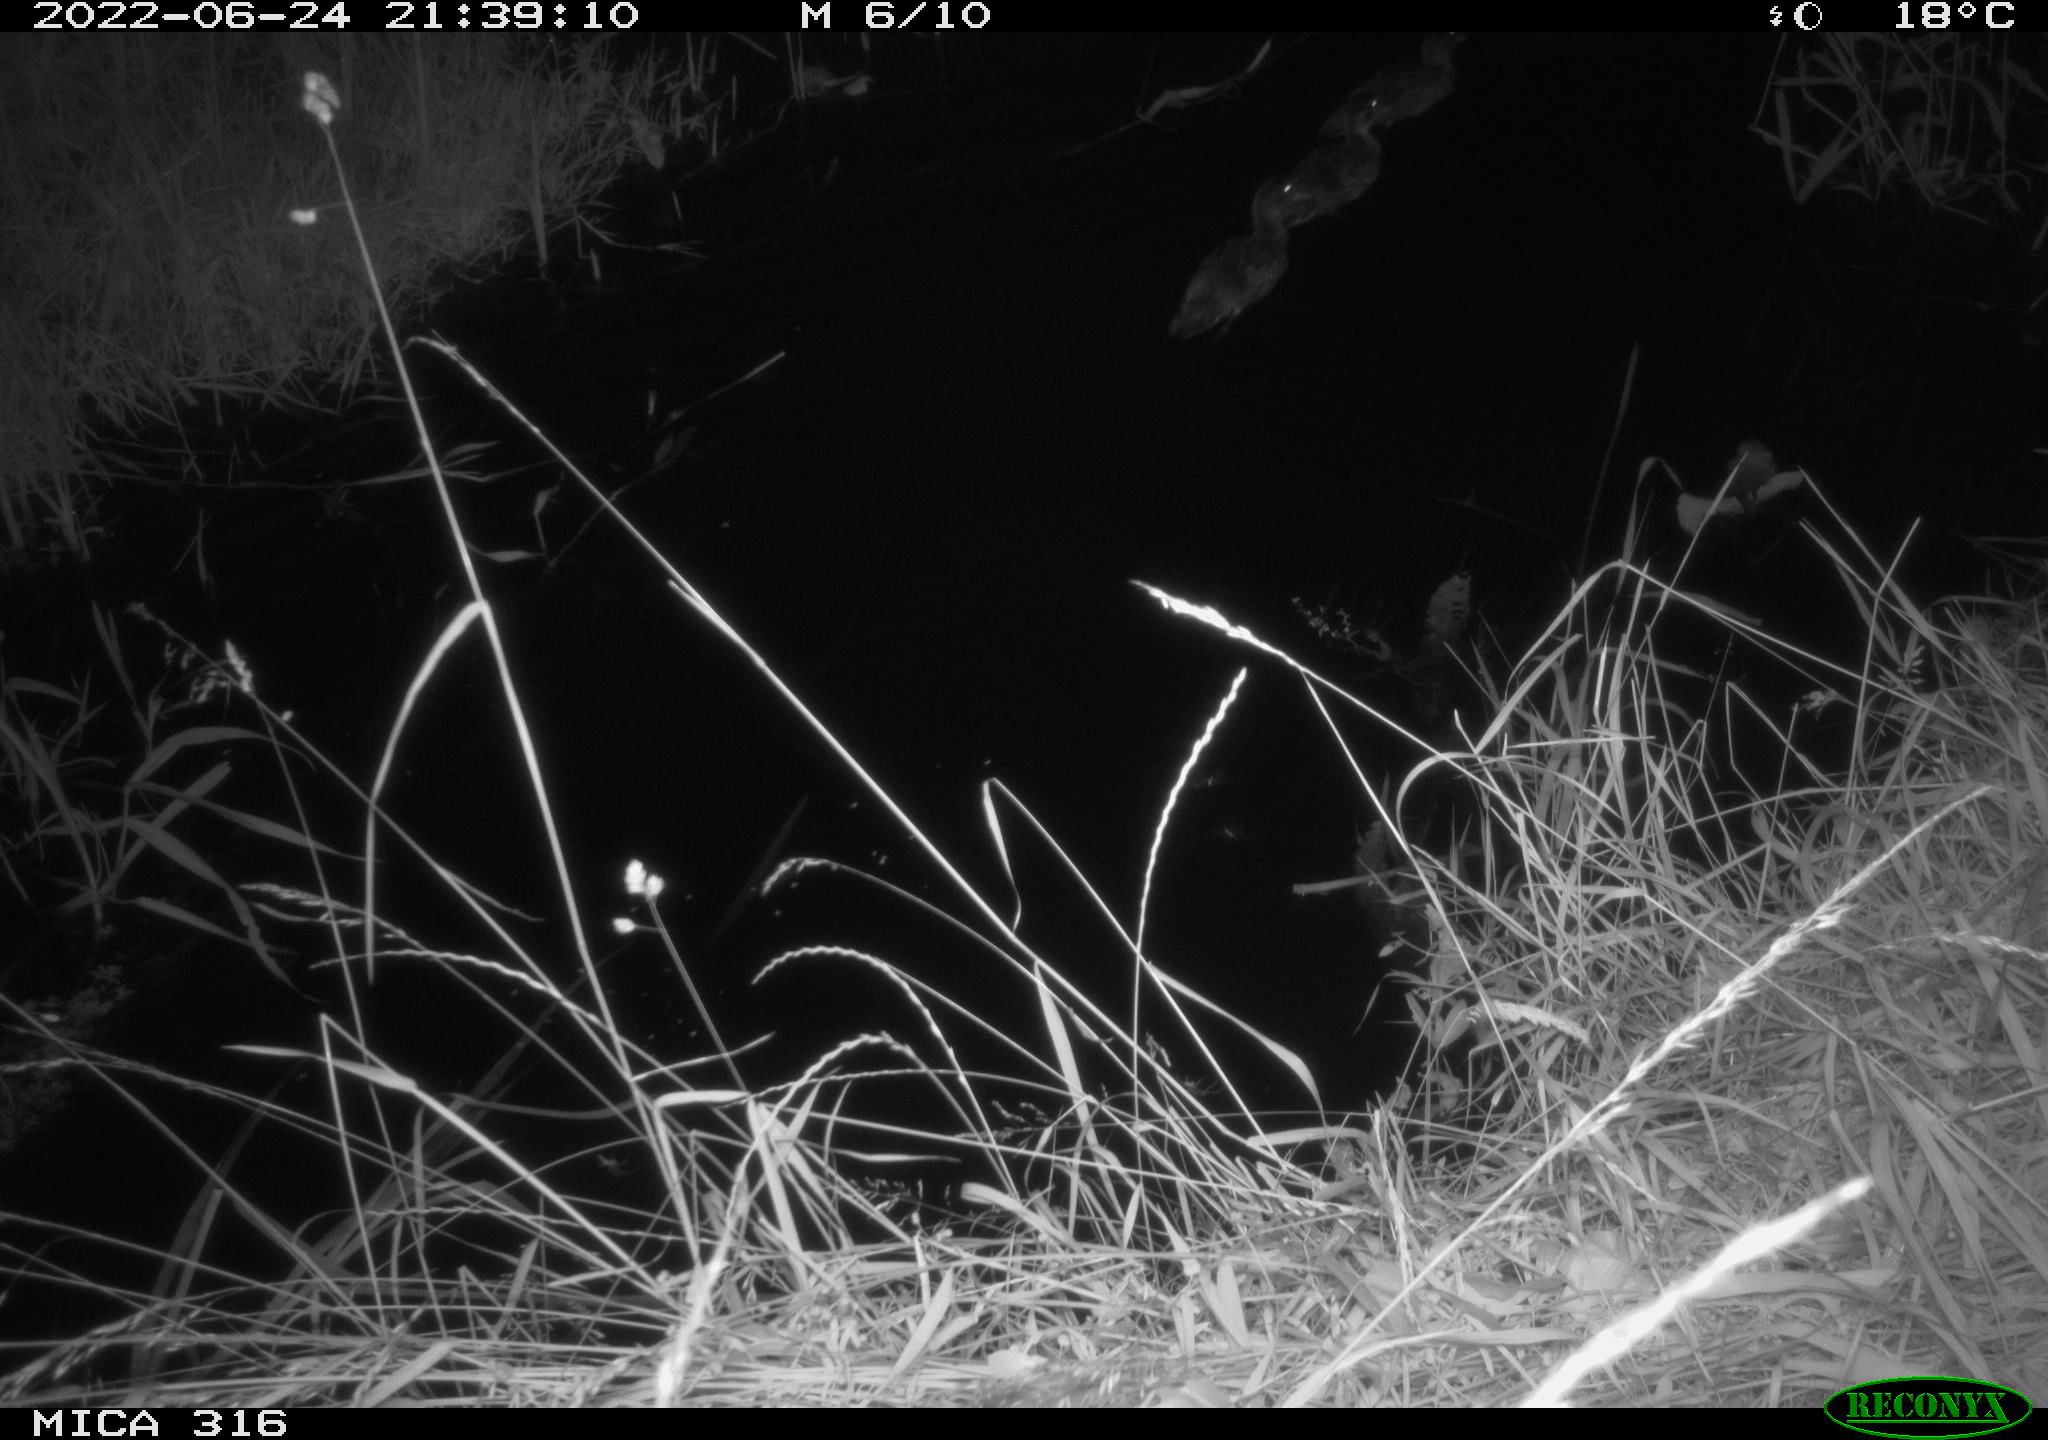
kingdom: Animalia
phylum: Chordata
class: Aves
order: Anseriformes
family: Anatidae
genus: Anas
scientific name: Anas platyrhynchos
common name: Mallard
